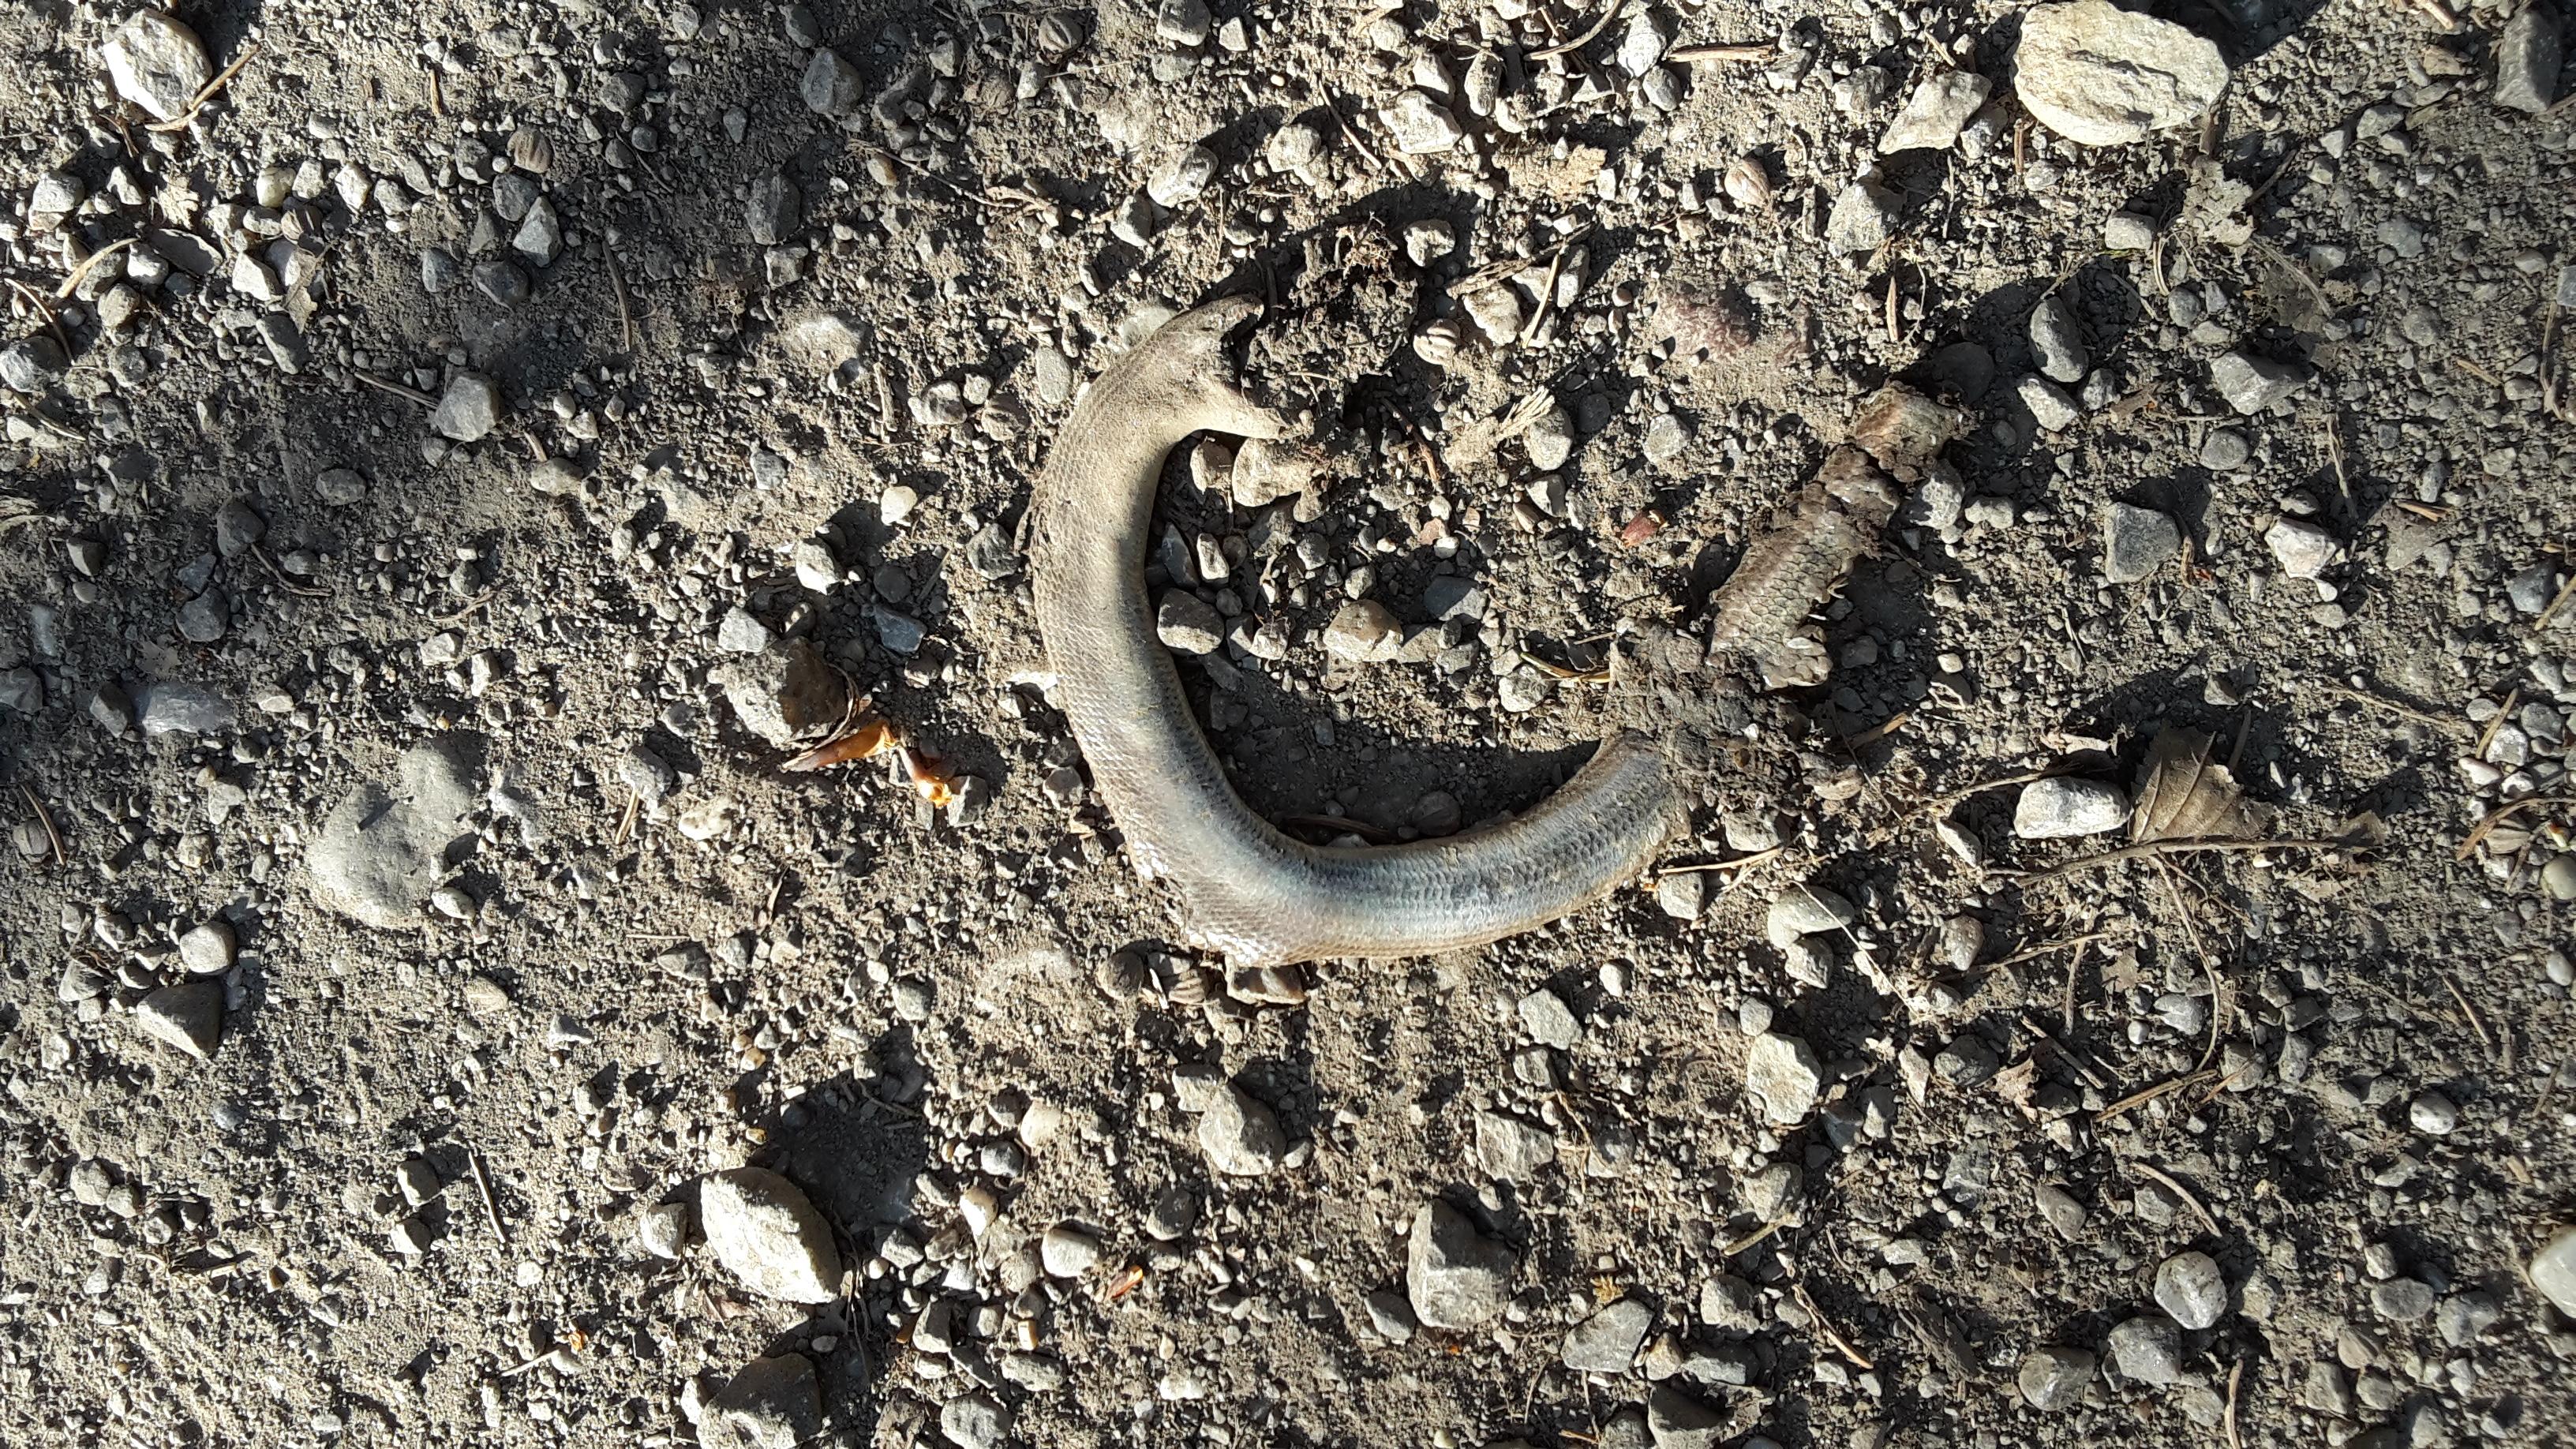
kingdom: Animalia
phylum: Chordata
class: Squamata
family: Anguidae
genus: Anguis
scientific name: Anguis fragilis
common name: Slow worm
